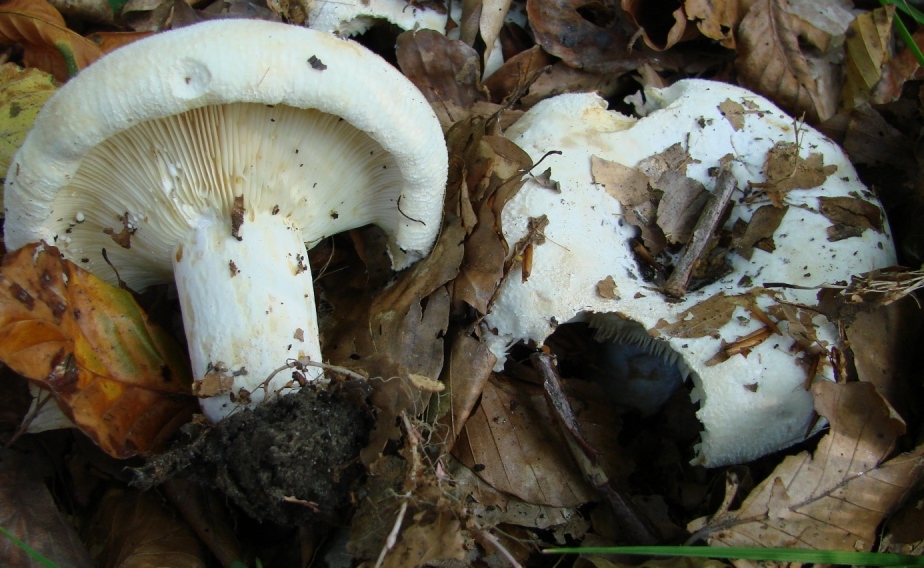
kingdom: Fungi
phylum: Basidiomycota
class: Agaricomycetes
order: Russulales
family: Russulaceae
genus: Lactifluus
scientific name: Lactifluus vellereus
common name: hvidfiltet mælkehat
